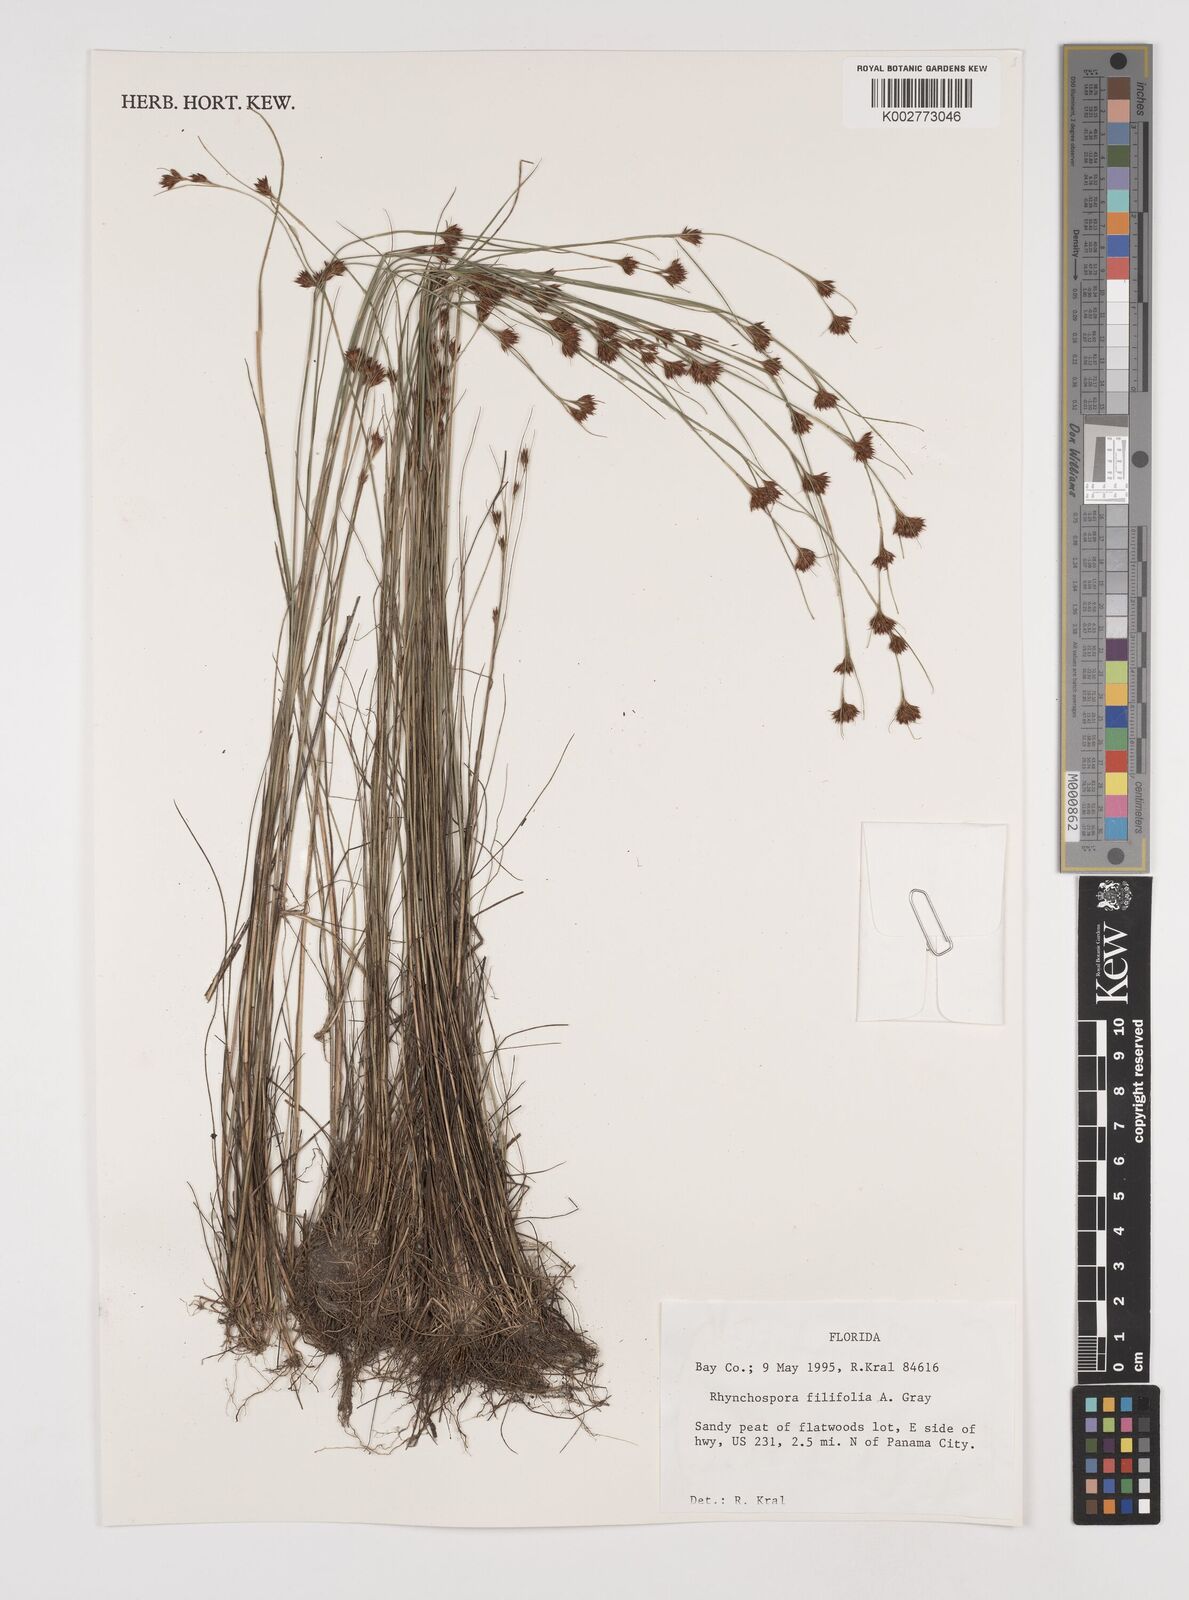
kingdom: Plantae
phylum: Tracheophyta
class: Liliopsida
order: Poales
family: Cyperaceae
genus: Rhynchospora
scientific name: Rhynchospora filifolia
